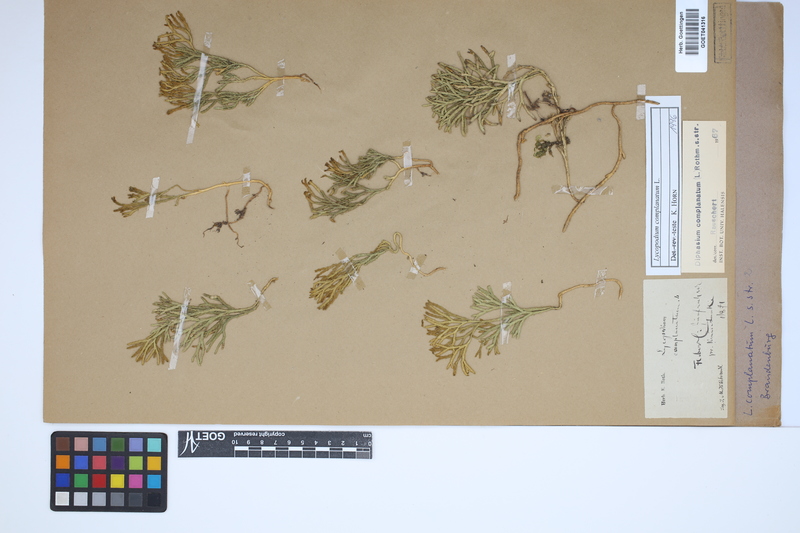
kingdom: Plantae
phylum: Tracheophyta
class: Lycopodiopsida
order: Lycopodiales
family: Lycopodiaceae
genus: Diphasiastrum
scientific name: Diphasiastrum complanatum
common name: Northern running-pine
